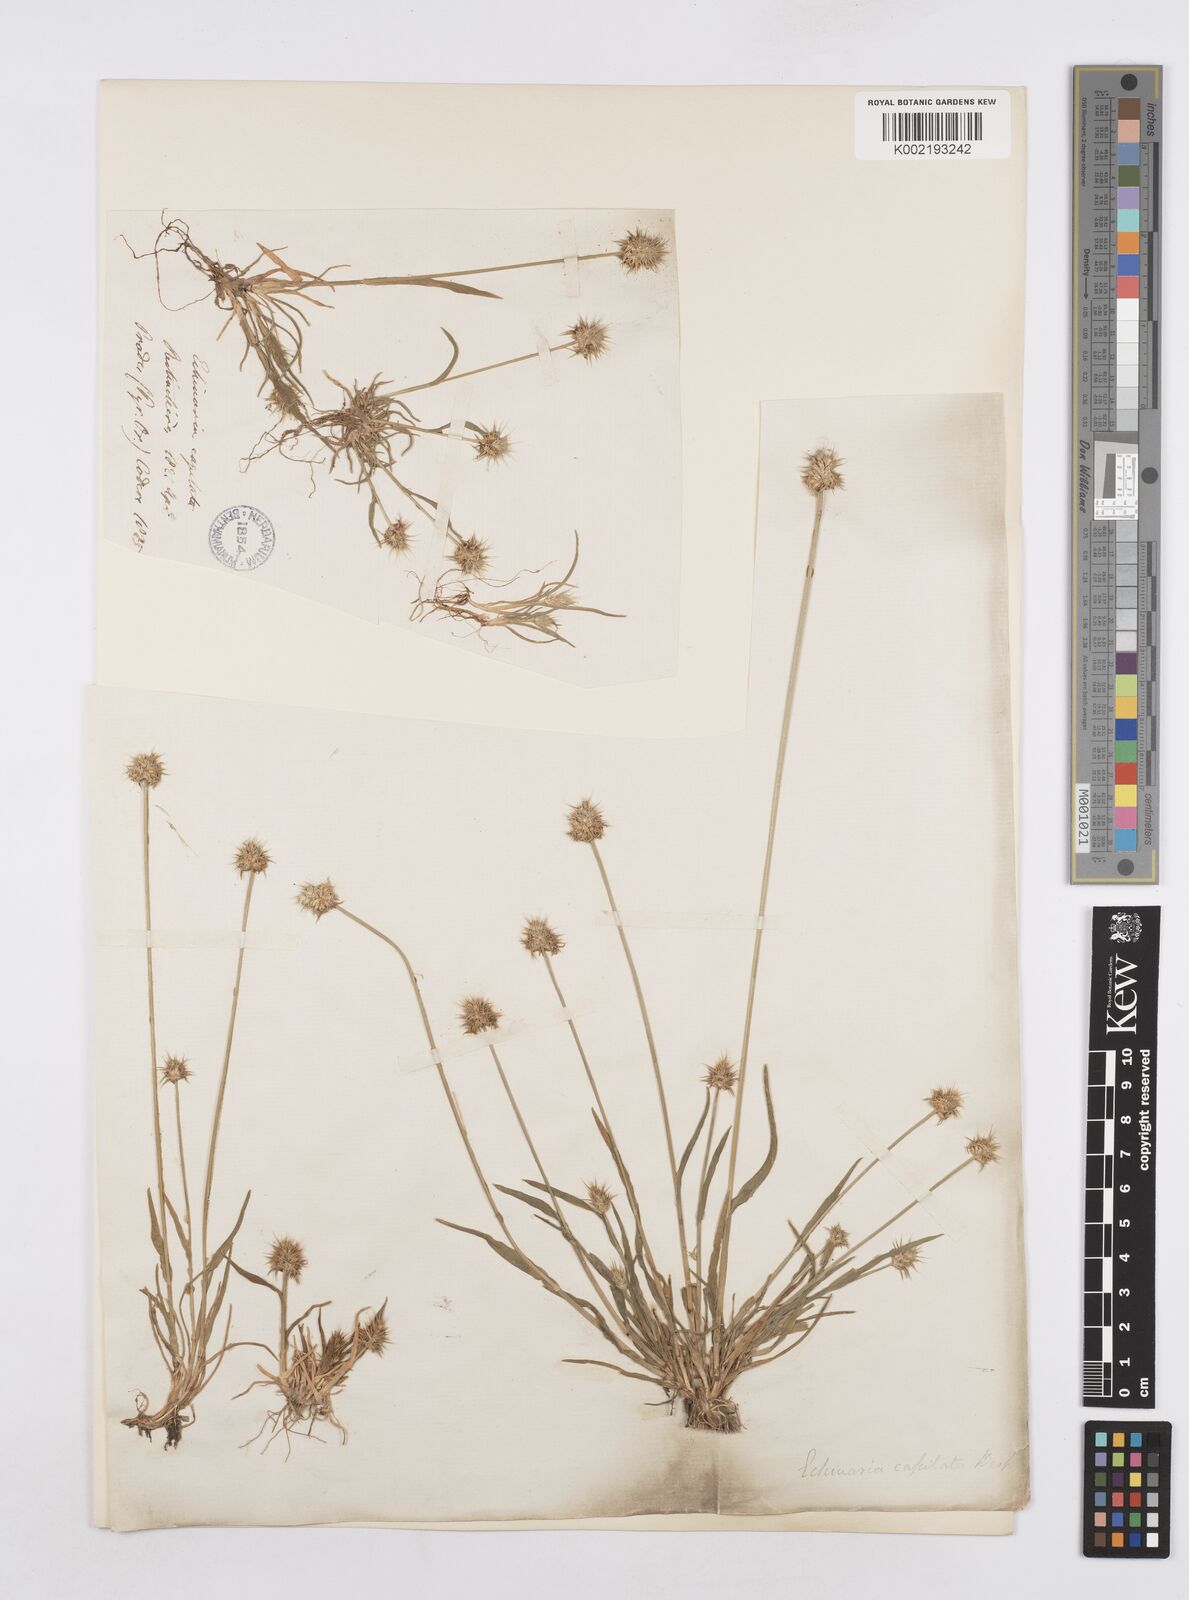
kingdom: Plantae
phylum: Tracheophyta
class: Liliopsida
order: Poales
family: Poaceae
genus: Echinaria
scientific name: Echinaria capitata
